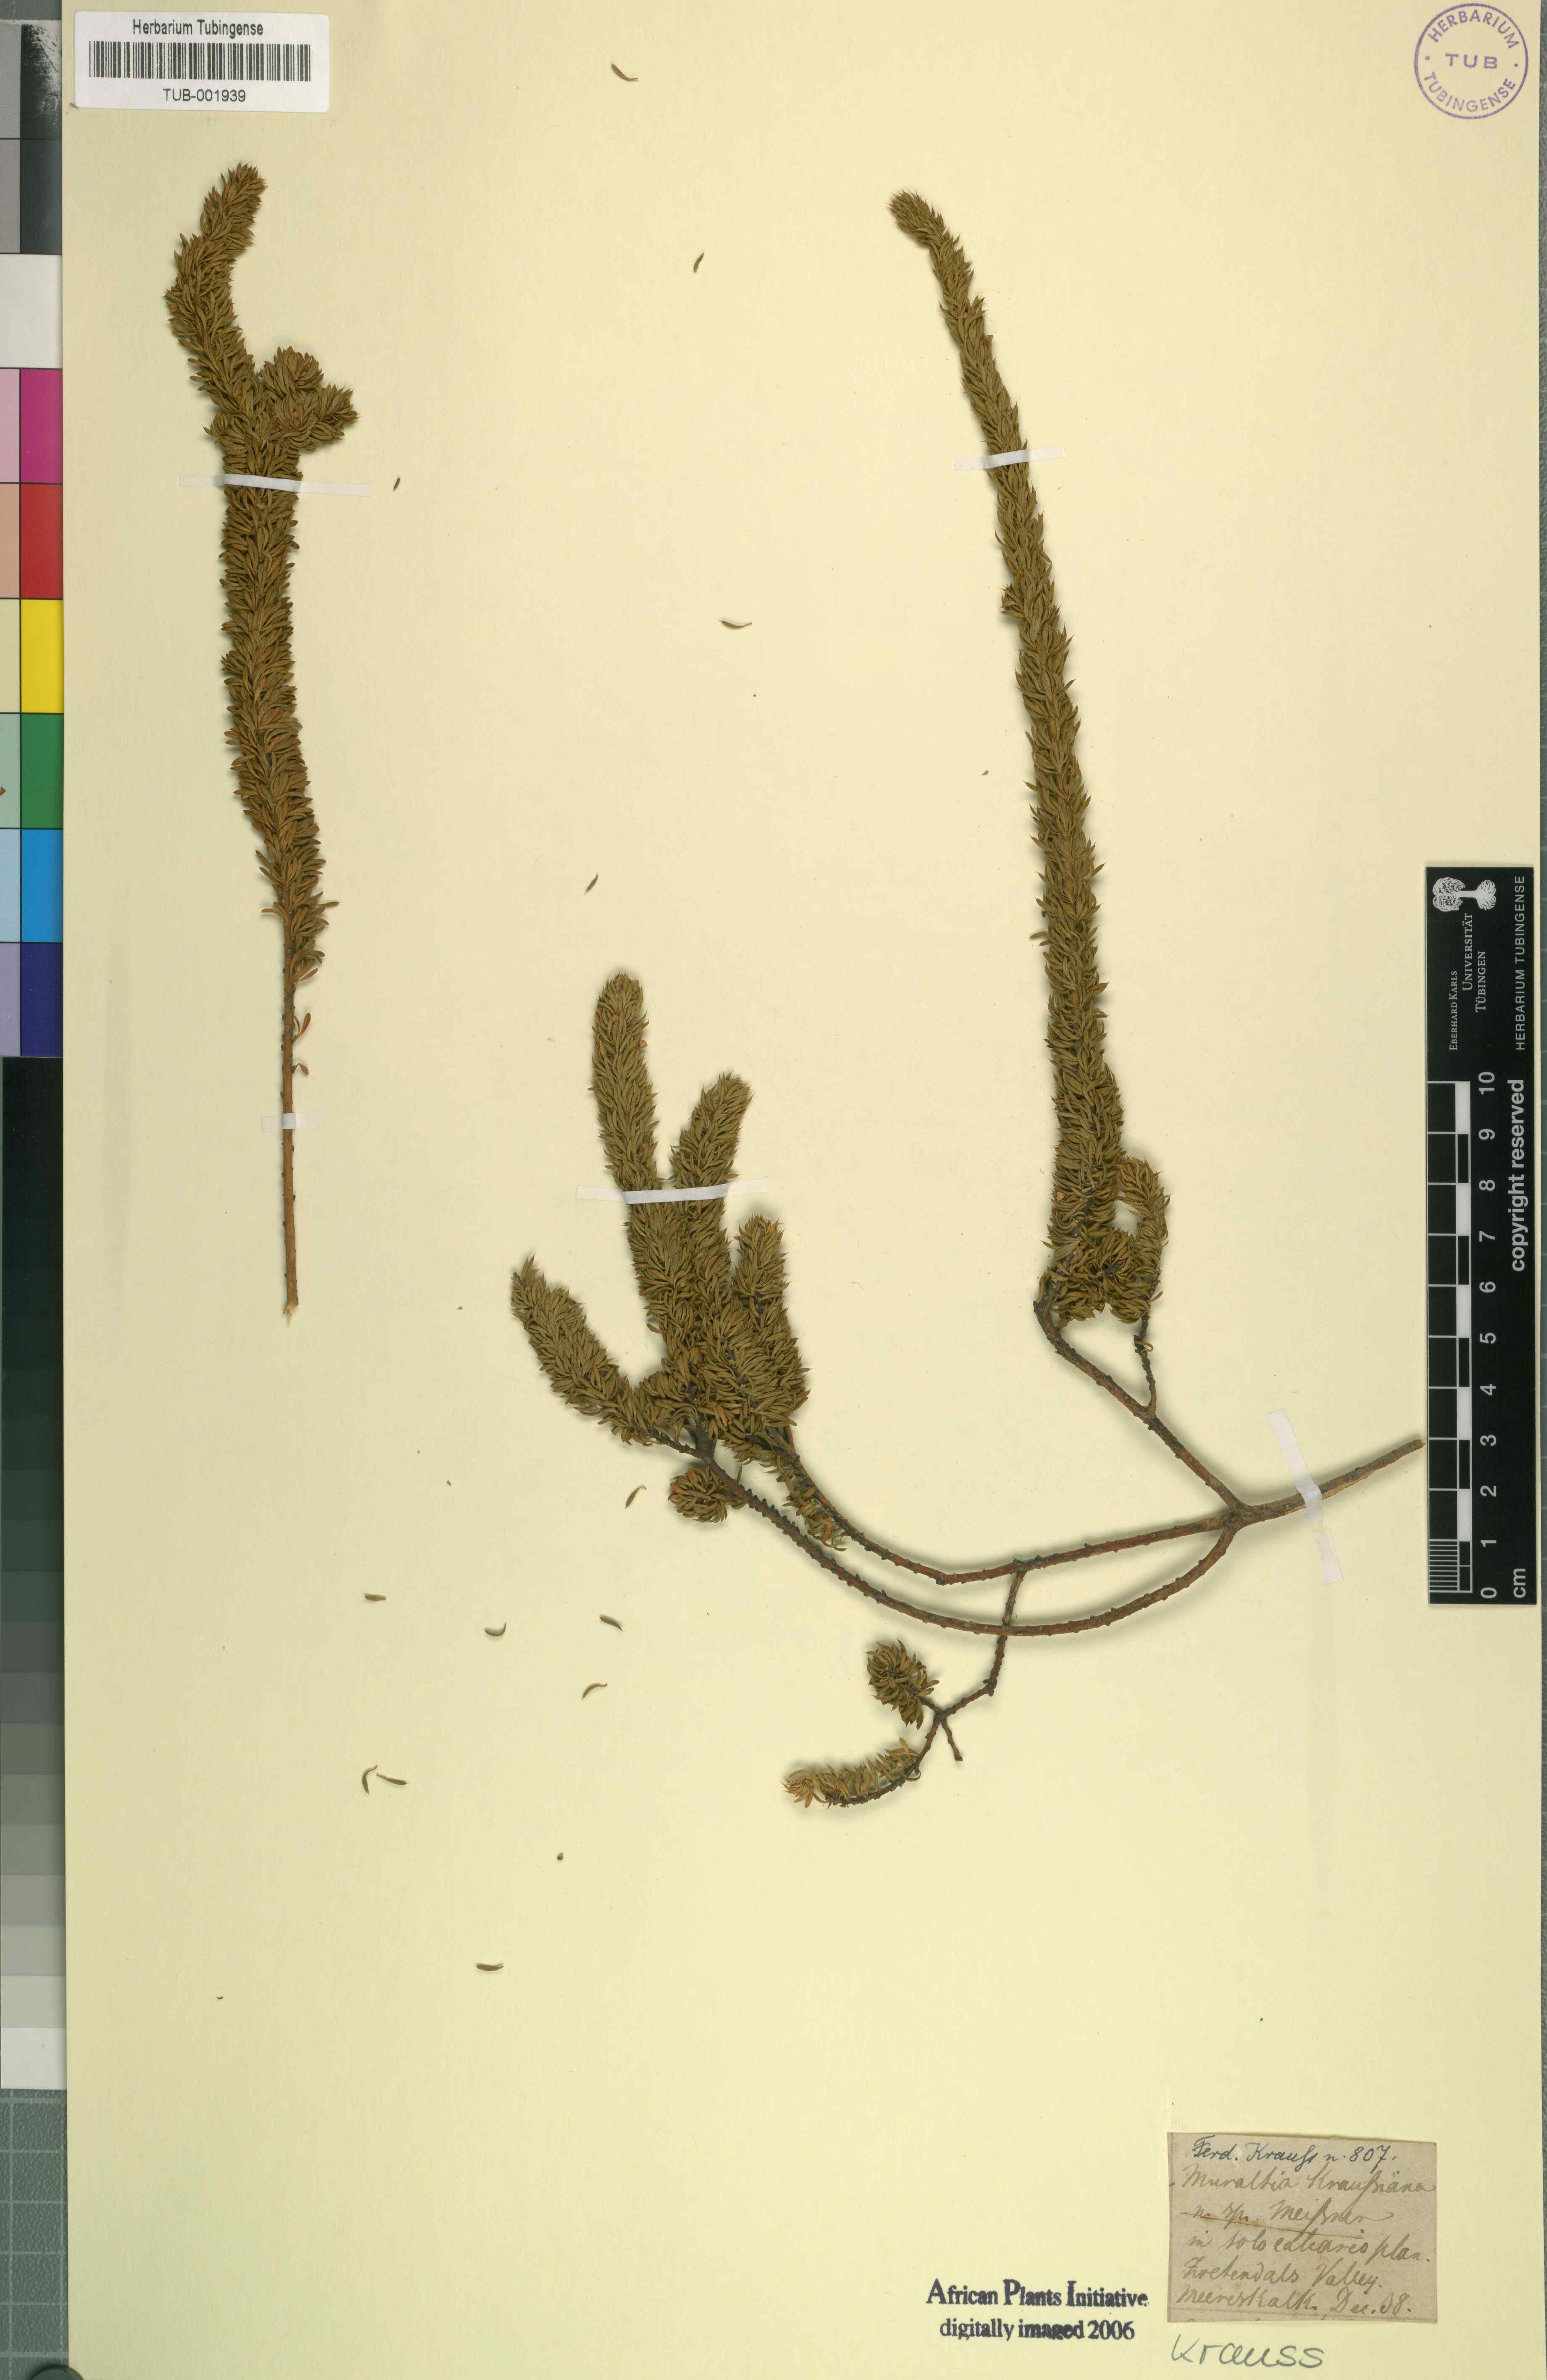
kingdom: Plantae
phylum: Tracheophyta
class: Magnoliopsida
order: Fabales
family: Polygalaceae
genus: Muraltia
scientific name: Muraltia mitior
